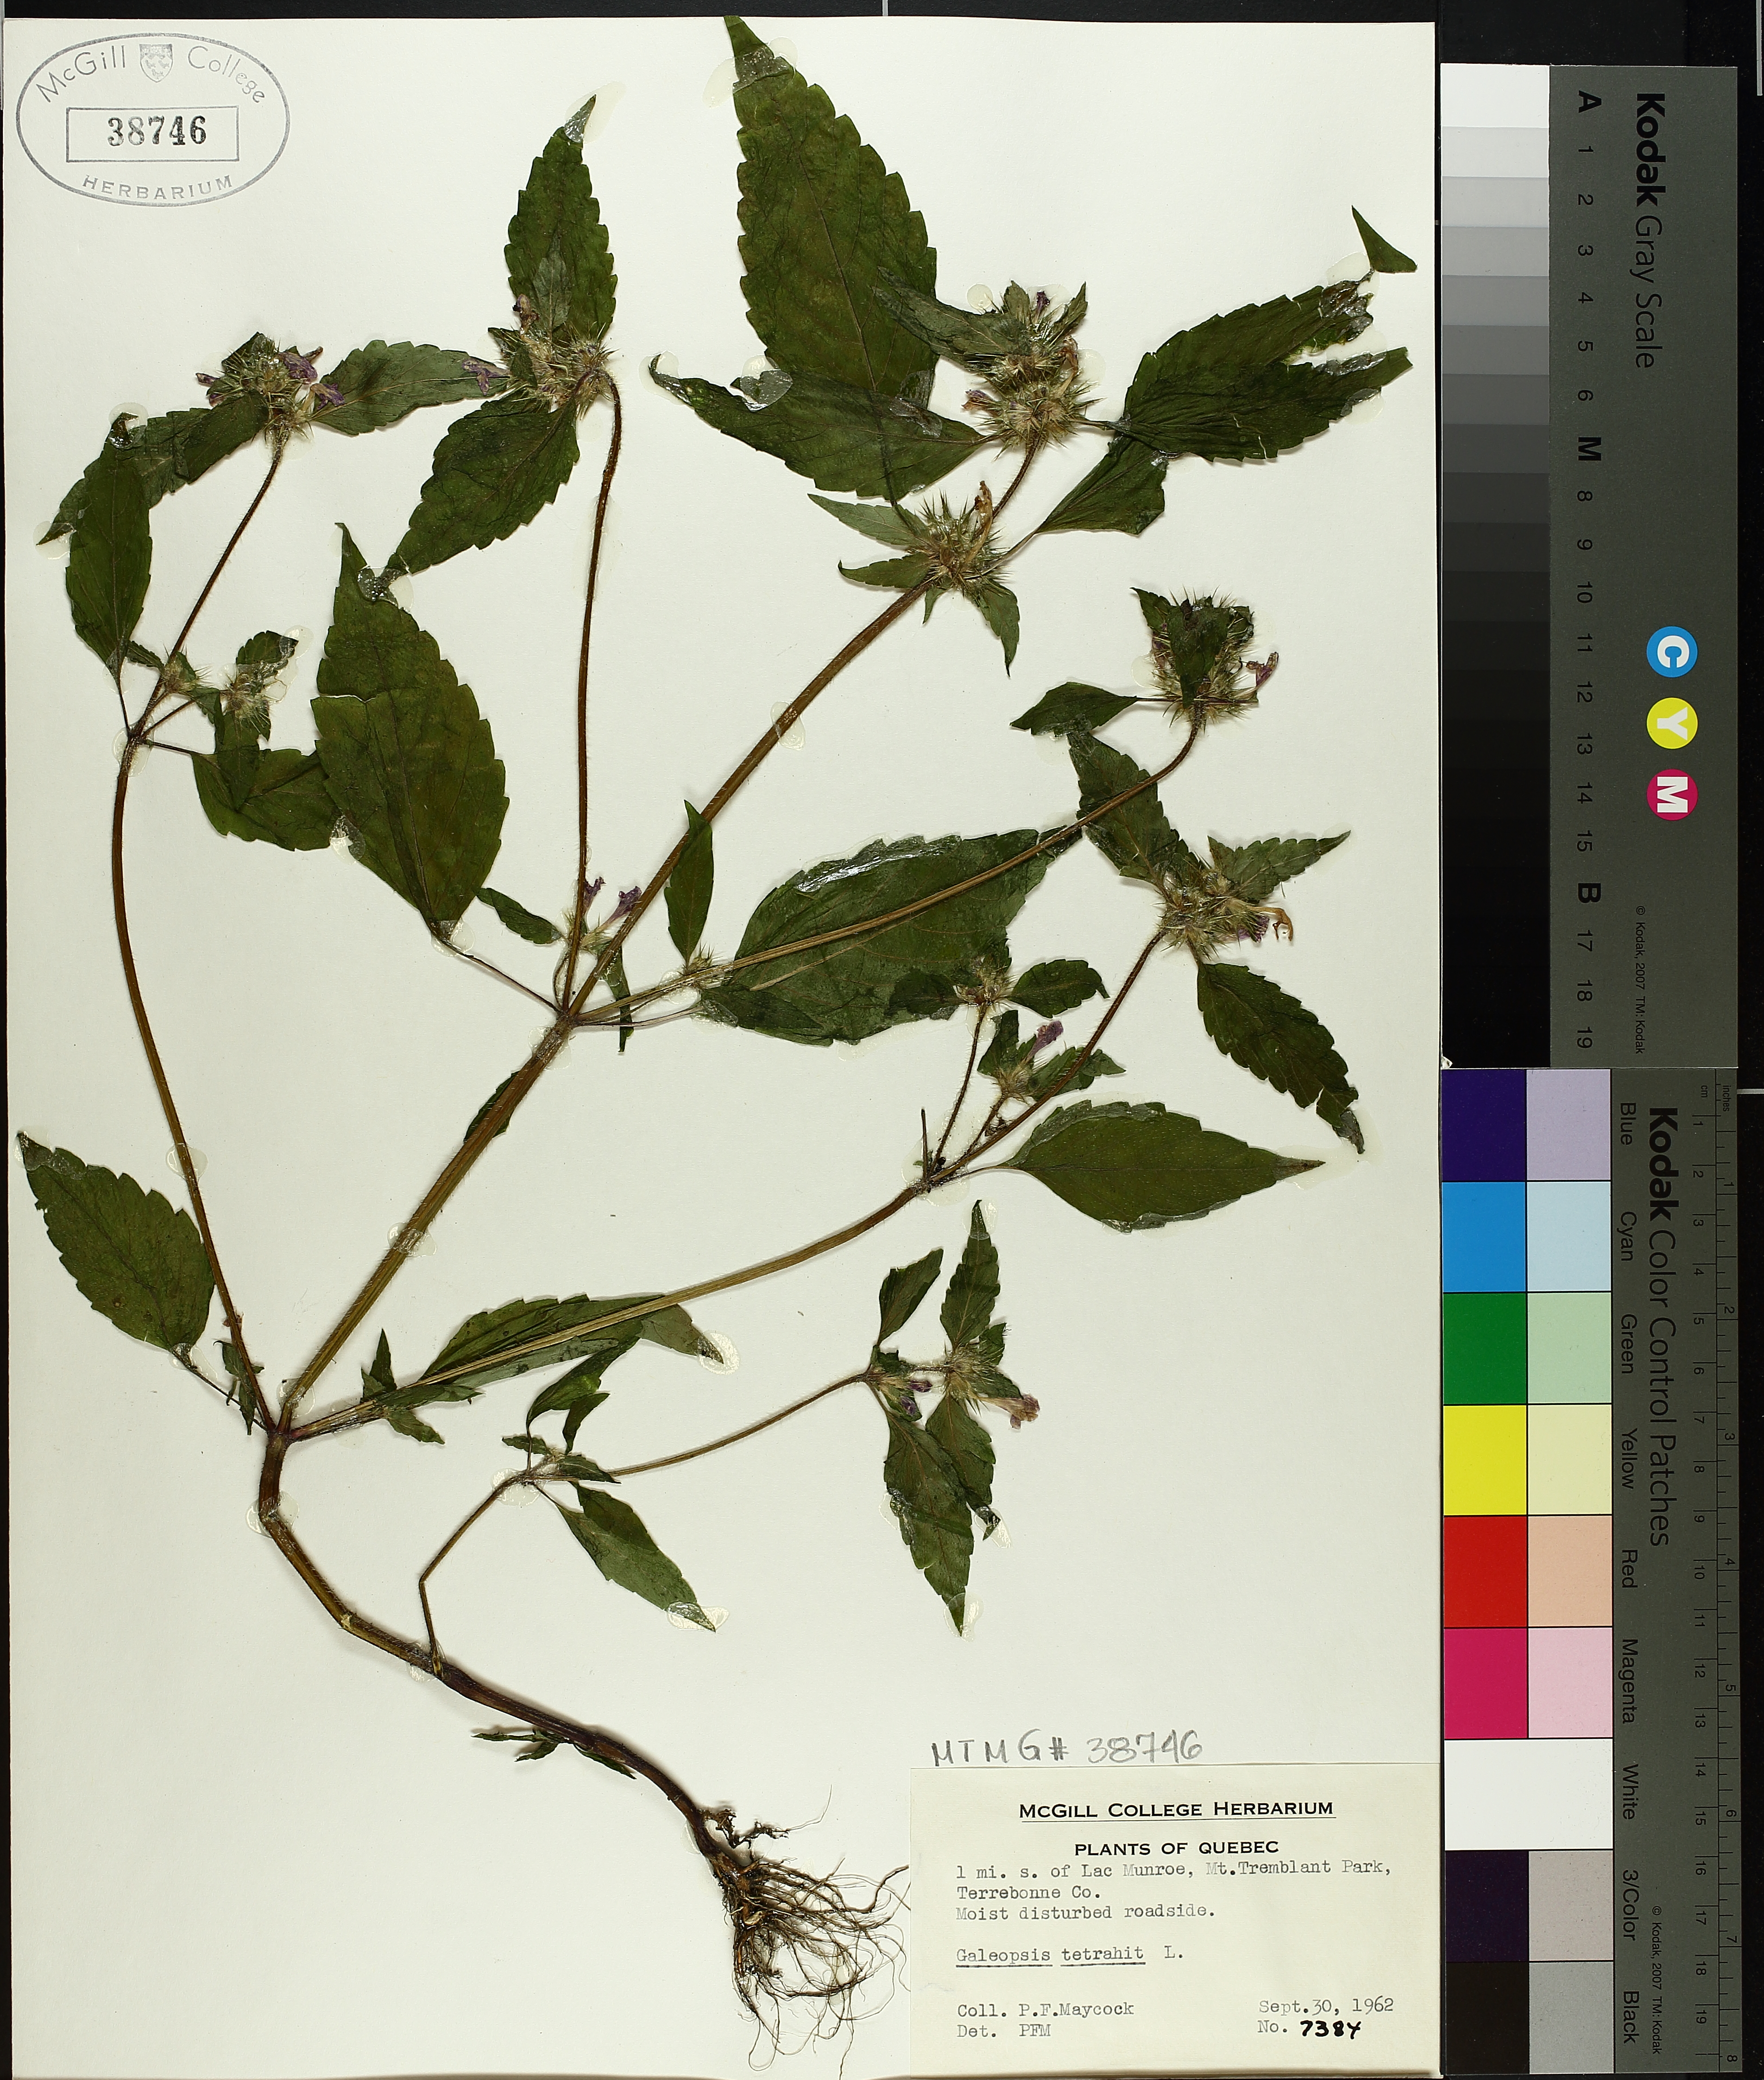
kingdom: Plantae
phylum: Tracheophyta
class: Magnoliopsida
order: Lamiales
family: Lamiaceae
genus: Galeopsis
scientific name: Galeopsis tetrahit
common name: Common hemp-nettle
